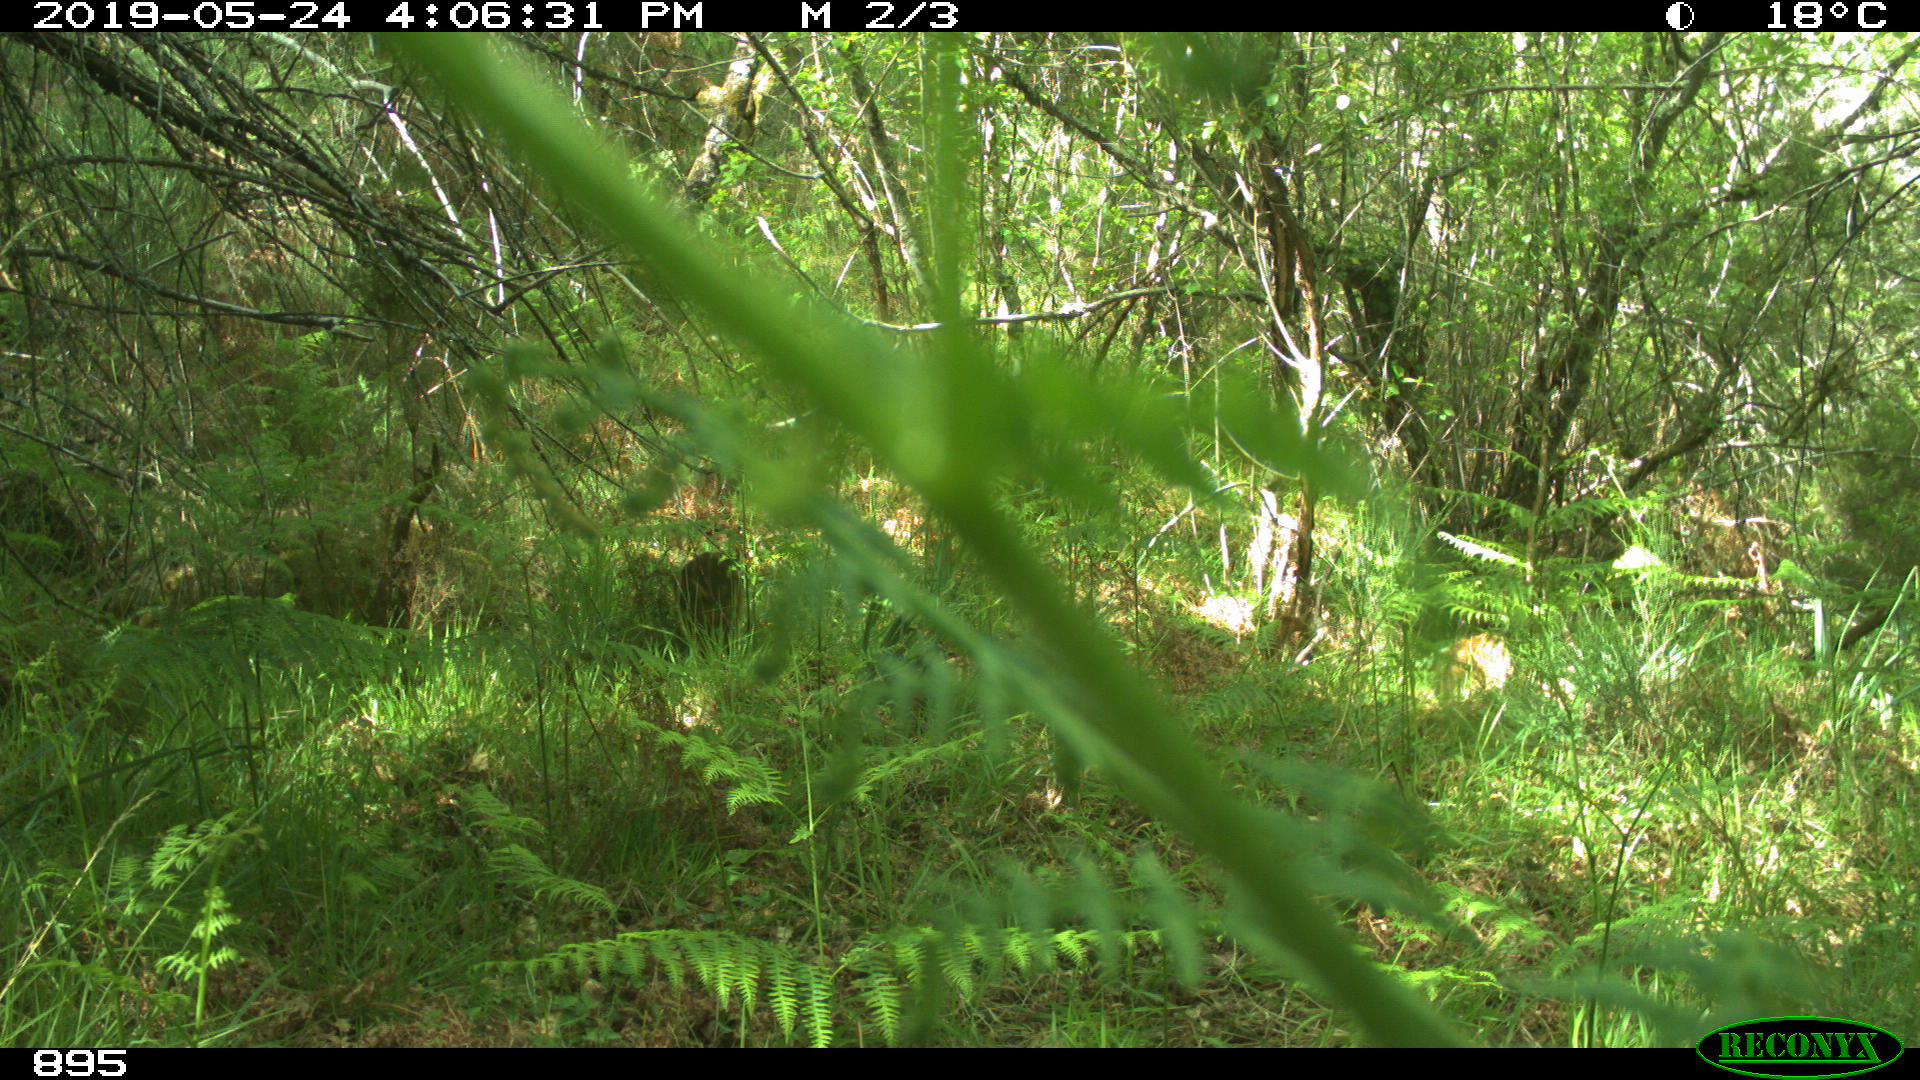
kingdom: Animalia
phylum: Chordata
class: Mammalia
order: Artiodactyla
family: Suidae
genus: Sus
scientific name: Sus scrofa
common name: Wild boar
